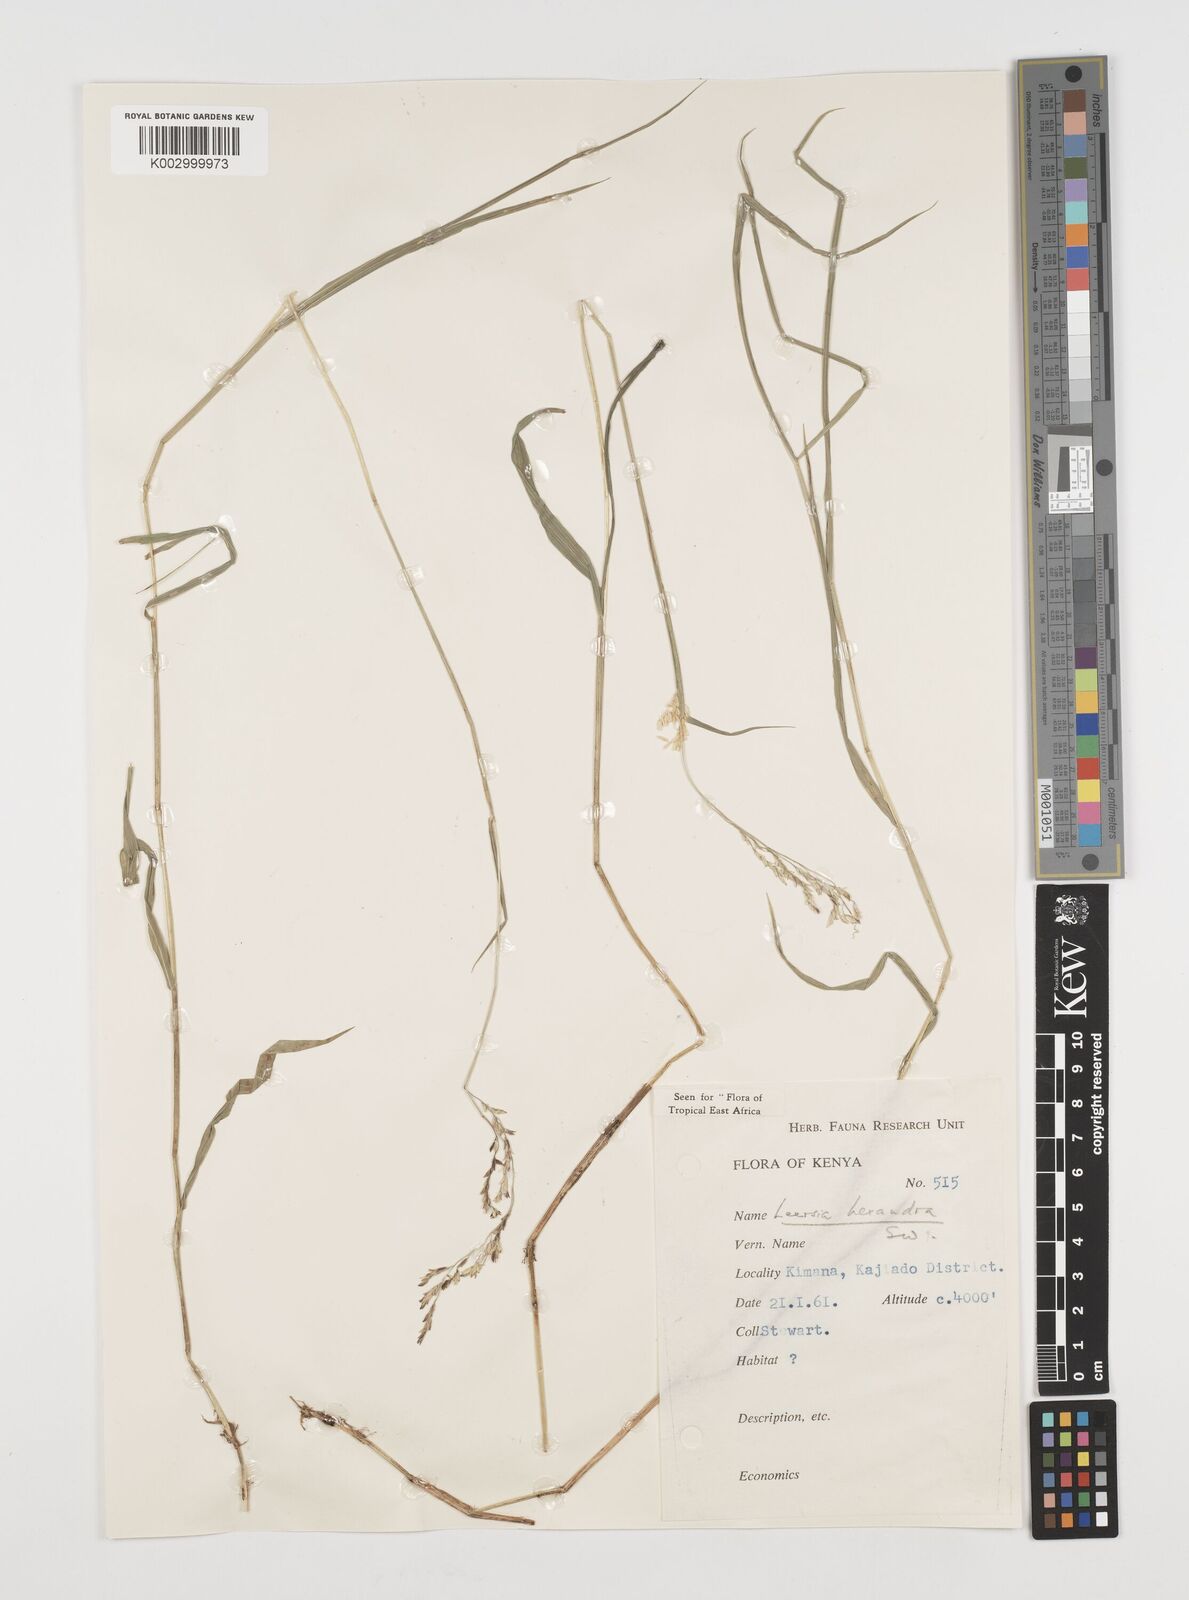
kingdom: Plantae
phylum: Tracheophyta
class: Liliopsida
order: Poales
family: Poaceae
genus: Leersia
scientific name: Leersia hexandra
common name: Southern cut grass
